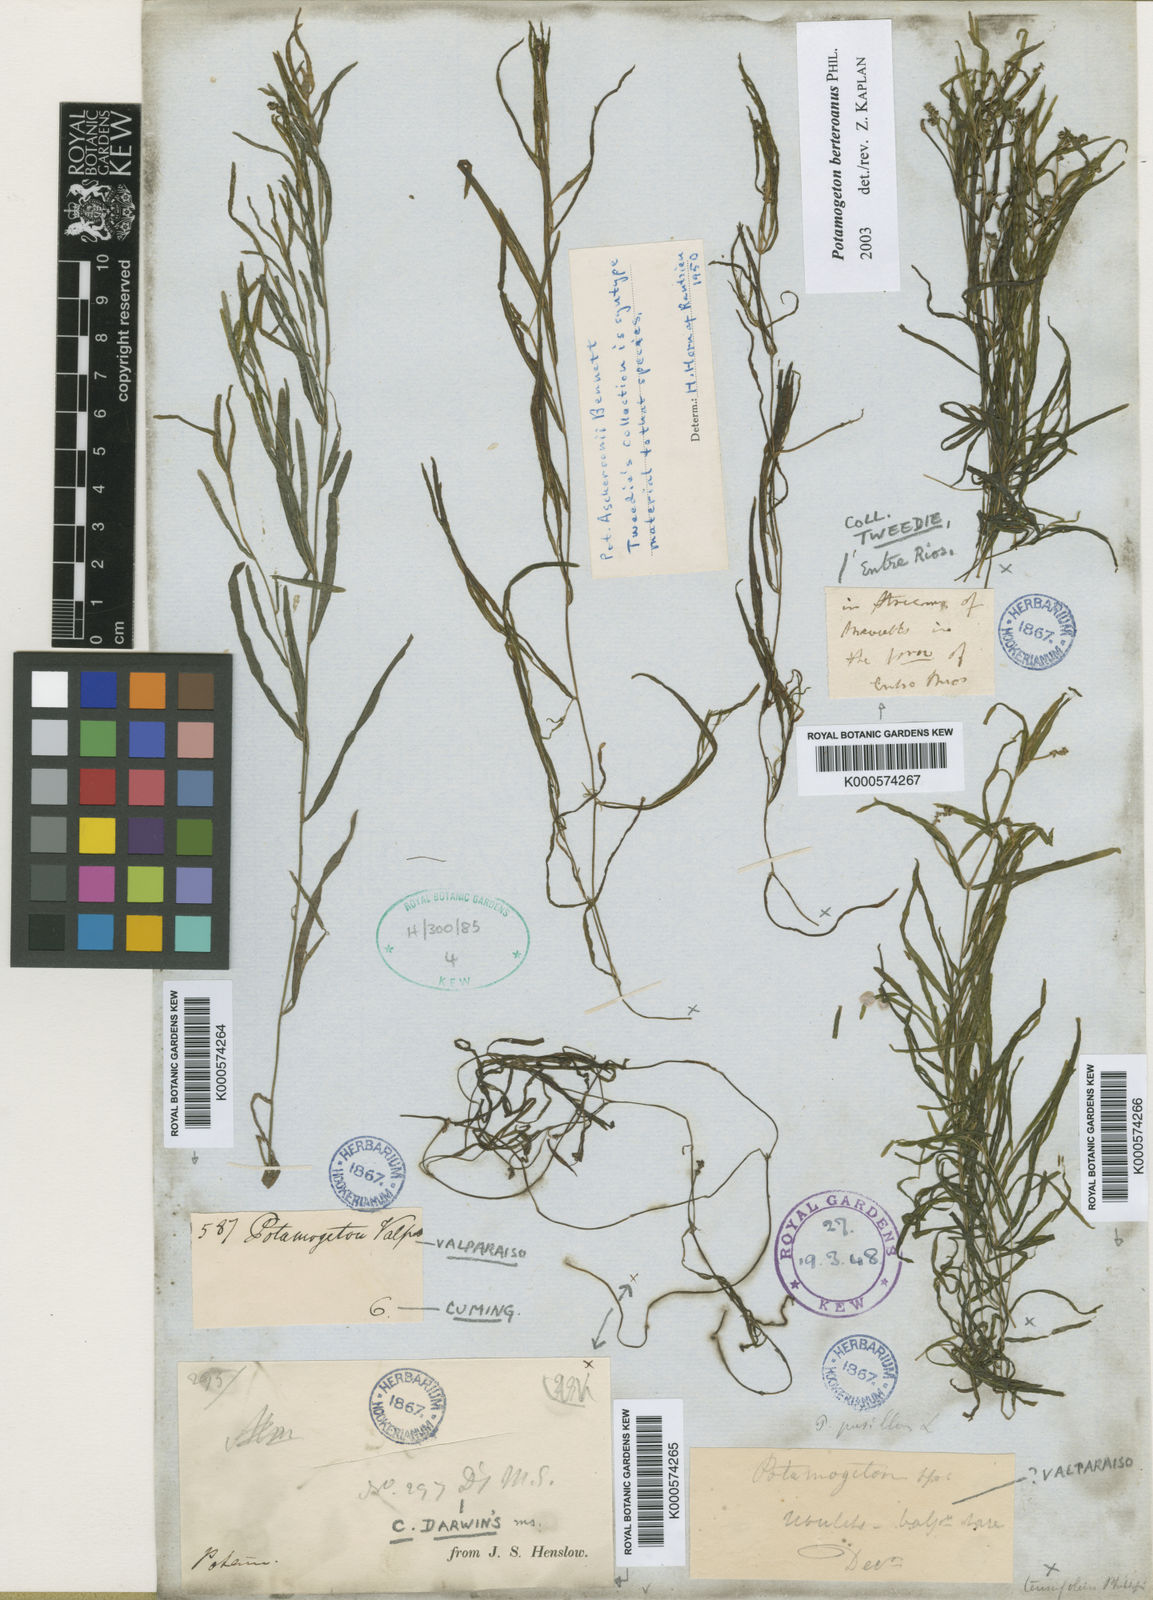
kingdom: Plantae
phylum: Tracheophyta
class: Liliopsida
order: Alismatales
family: Potamogetonaceae
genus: Potamogeton
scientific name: Potamogeton pusillus
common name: Lesser pondweed
